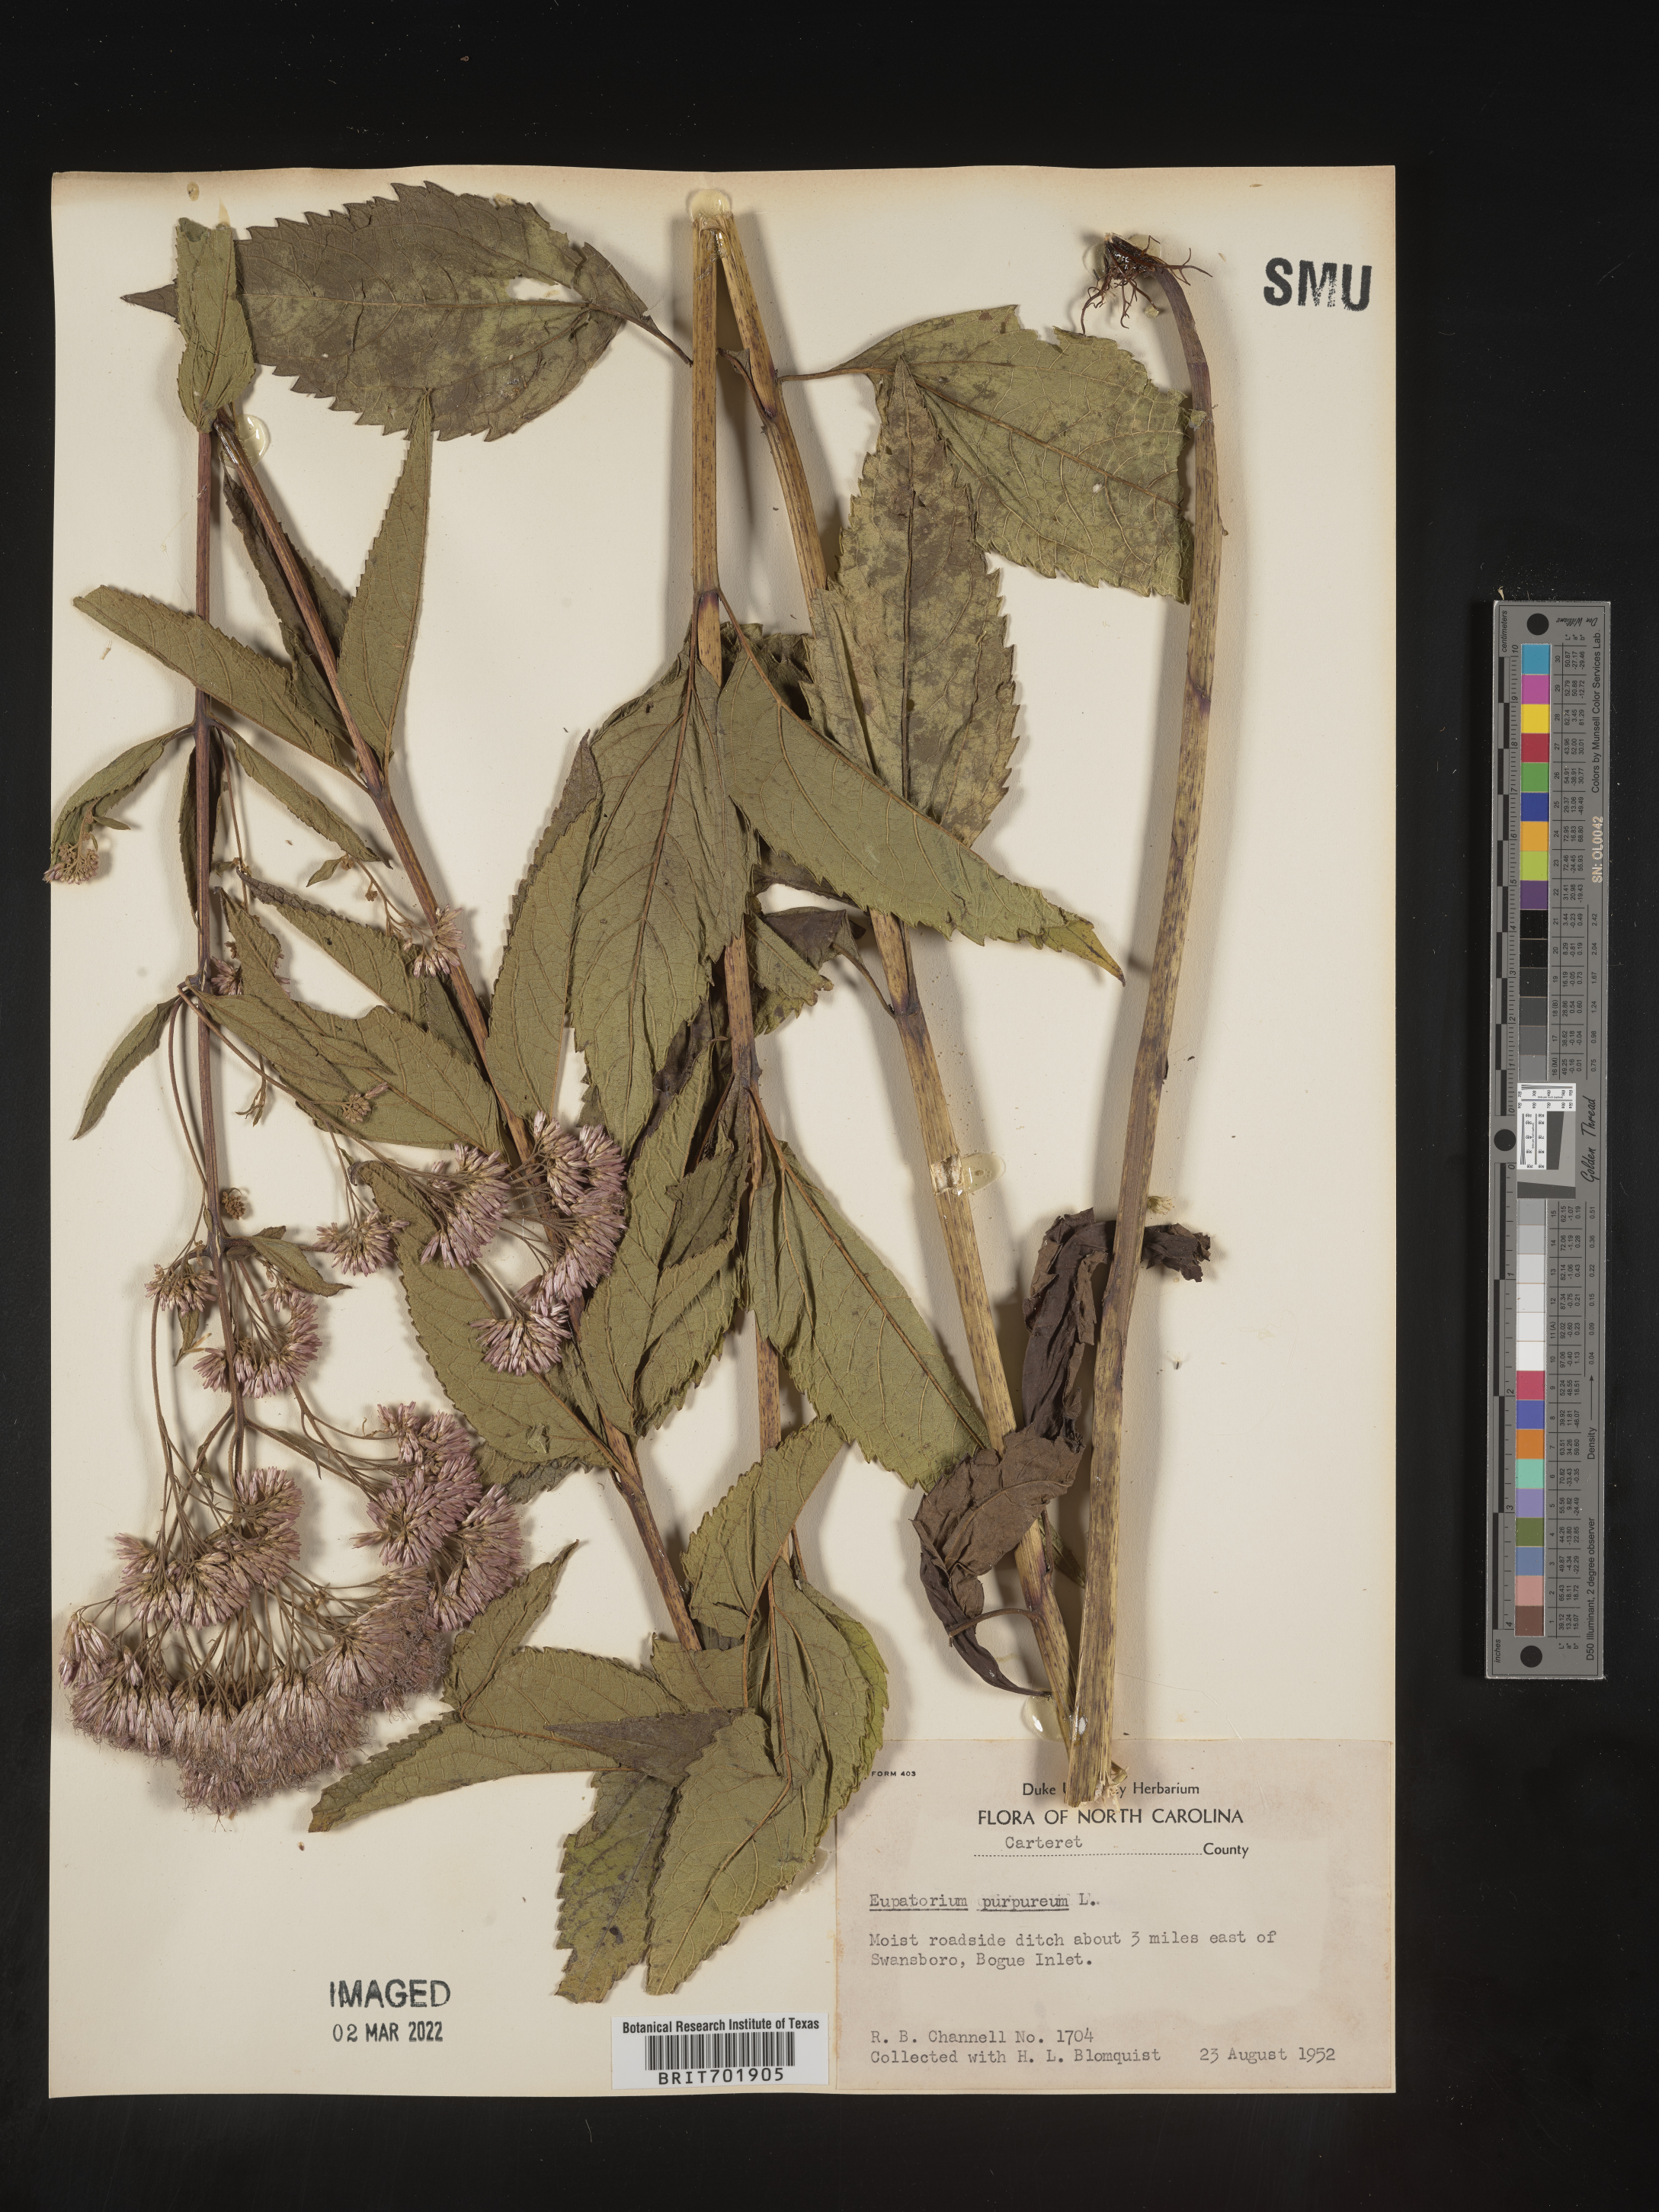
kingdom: Plantae
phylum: Tracheophyta
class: Magnoliopsida
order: Asterales
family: Asteraceae
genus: Eupatorium
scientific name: Eupatorium quaternum
